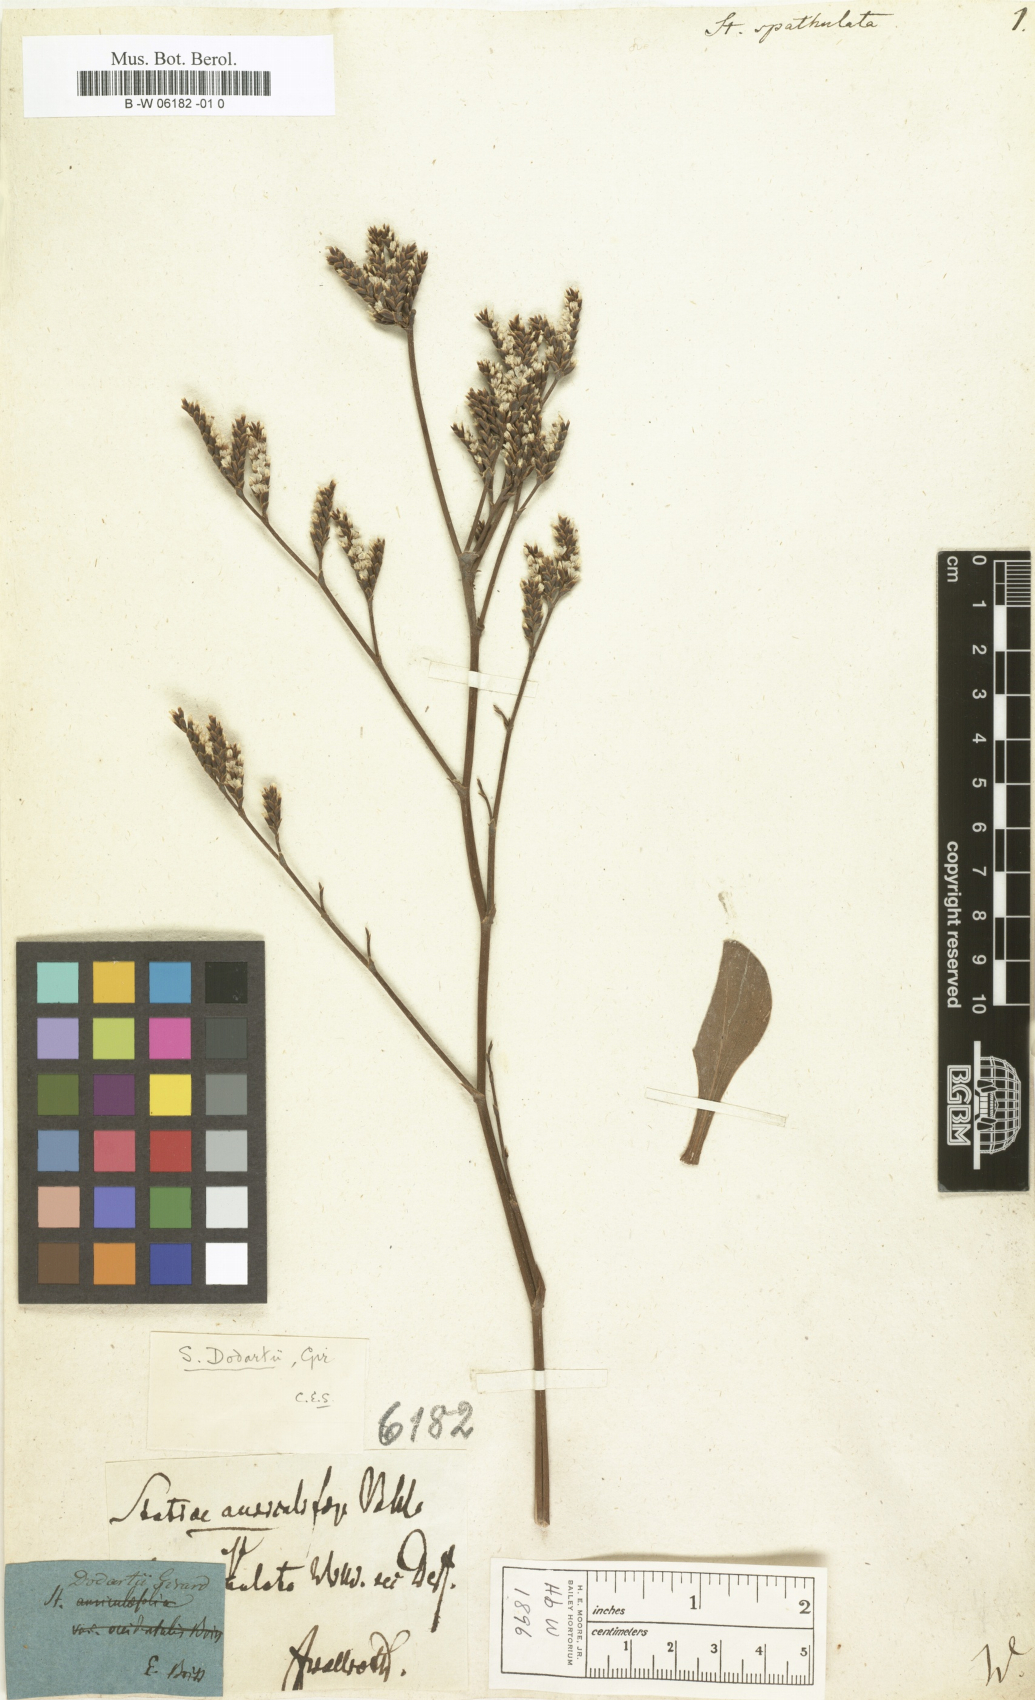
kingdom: Plantae
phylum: Tracheophyta
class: Magnoliopsida
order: Caryophyllales
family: Plumbaginaceae
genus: Limonium
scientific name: Limonium
